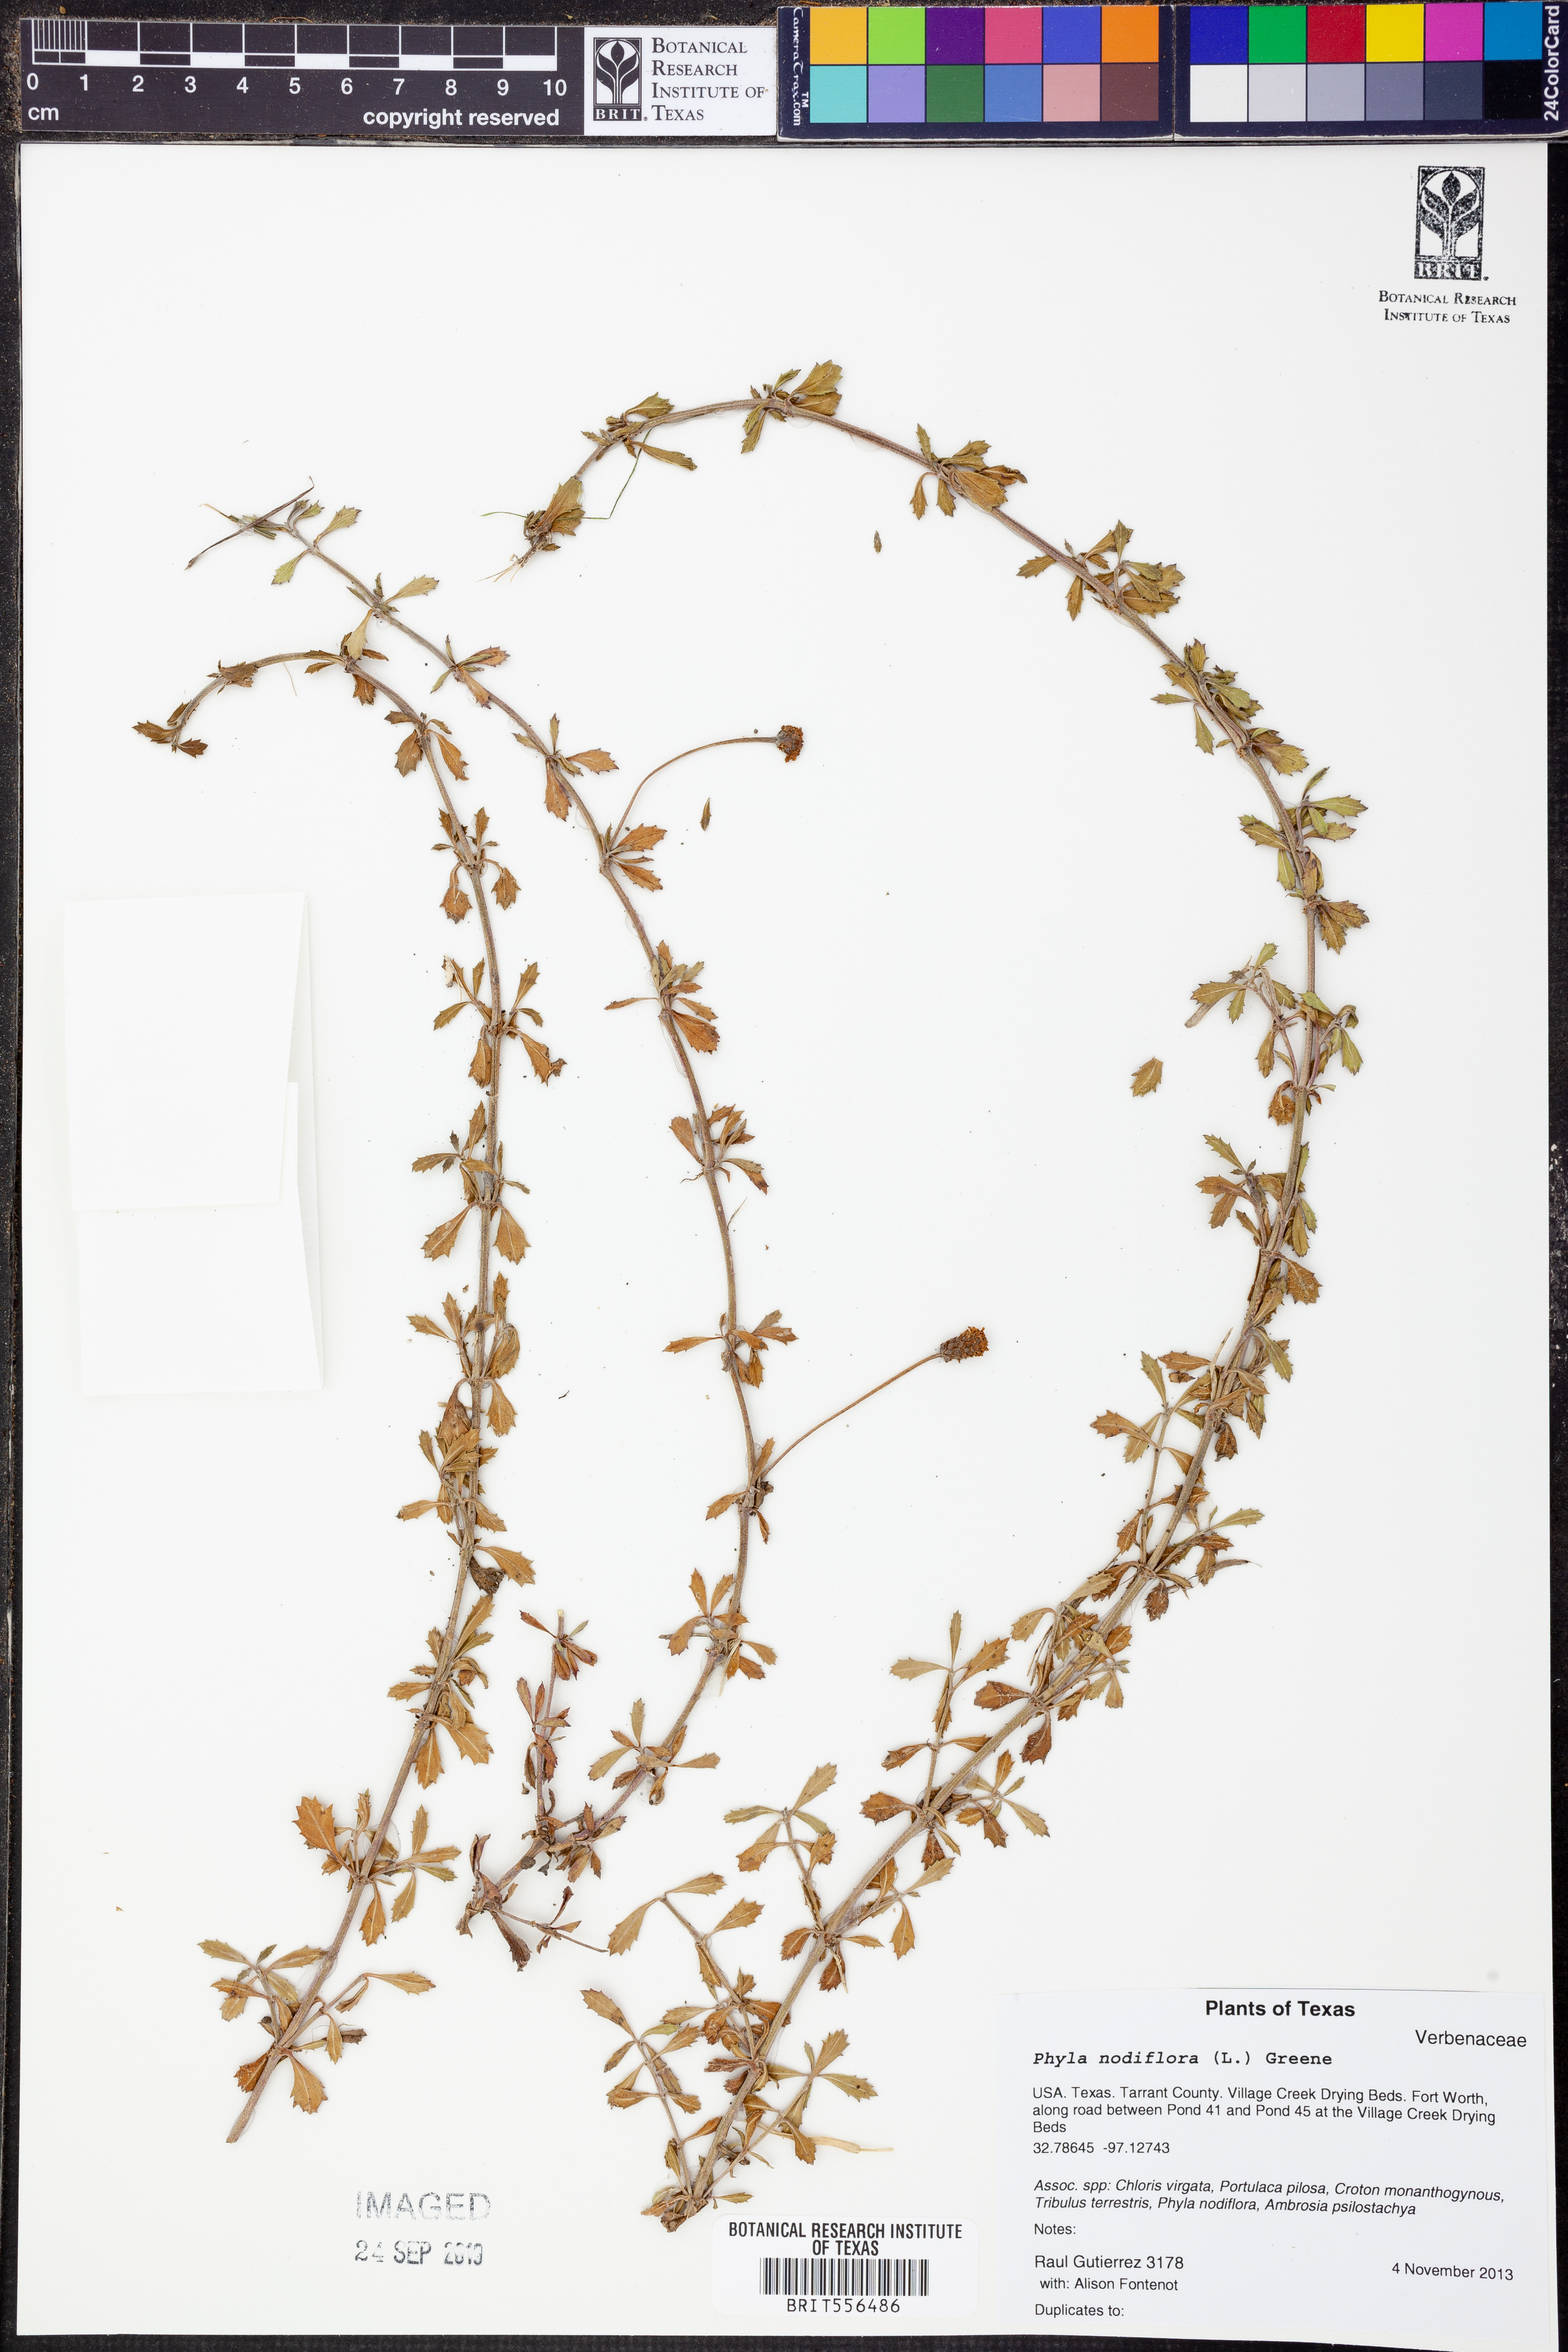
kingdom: Plantae
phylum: Tracheophyta
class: Magnoliopsida
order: Lamiales
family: Verbenaceae
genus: Phyla
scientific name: Phyla nodiflora
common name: Frogfruit
